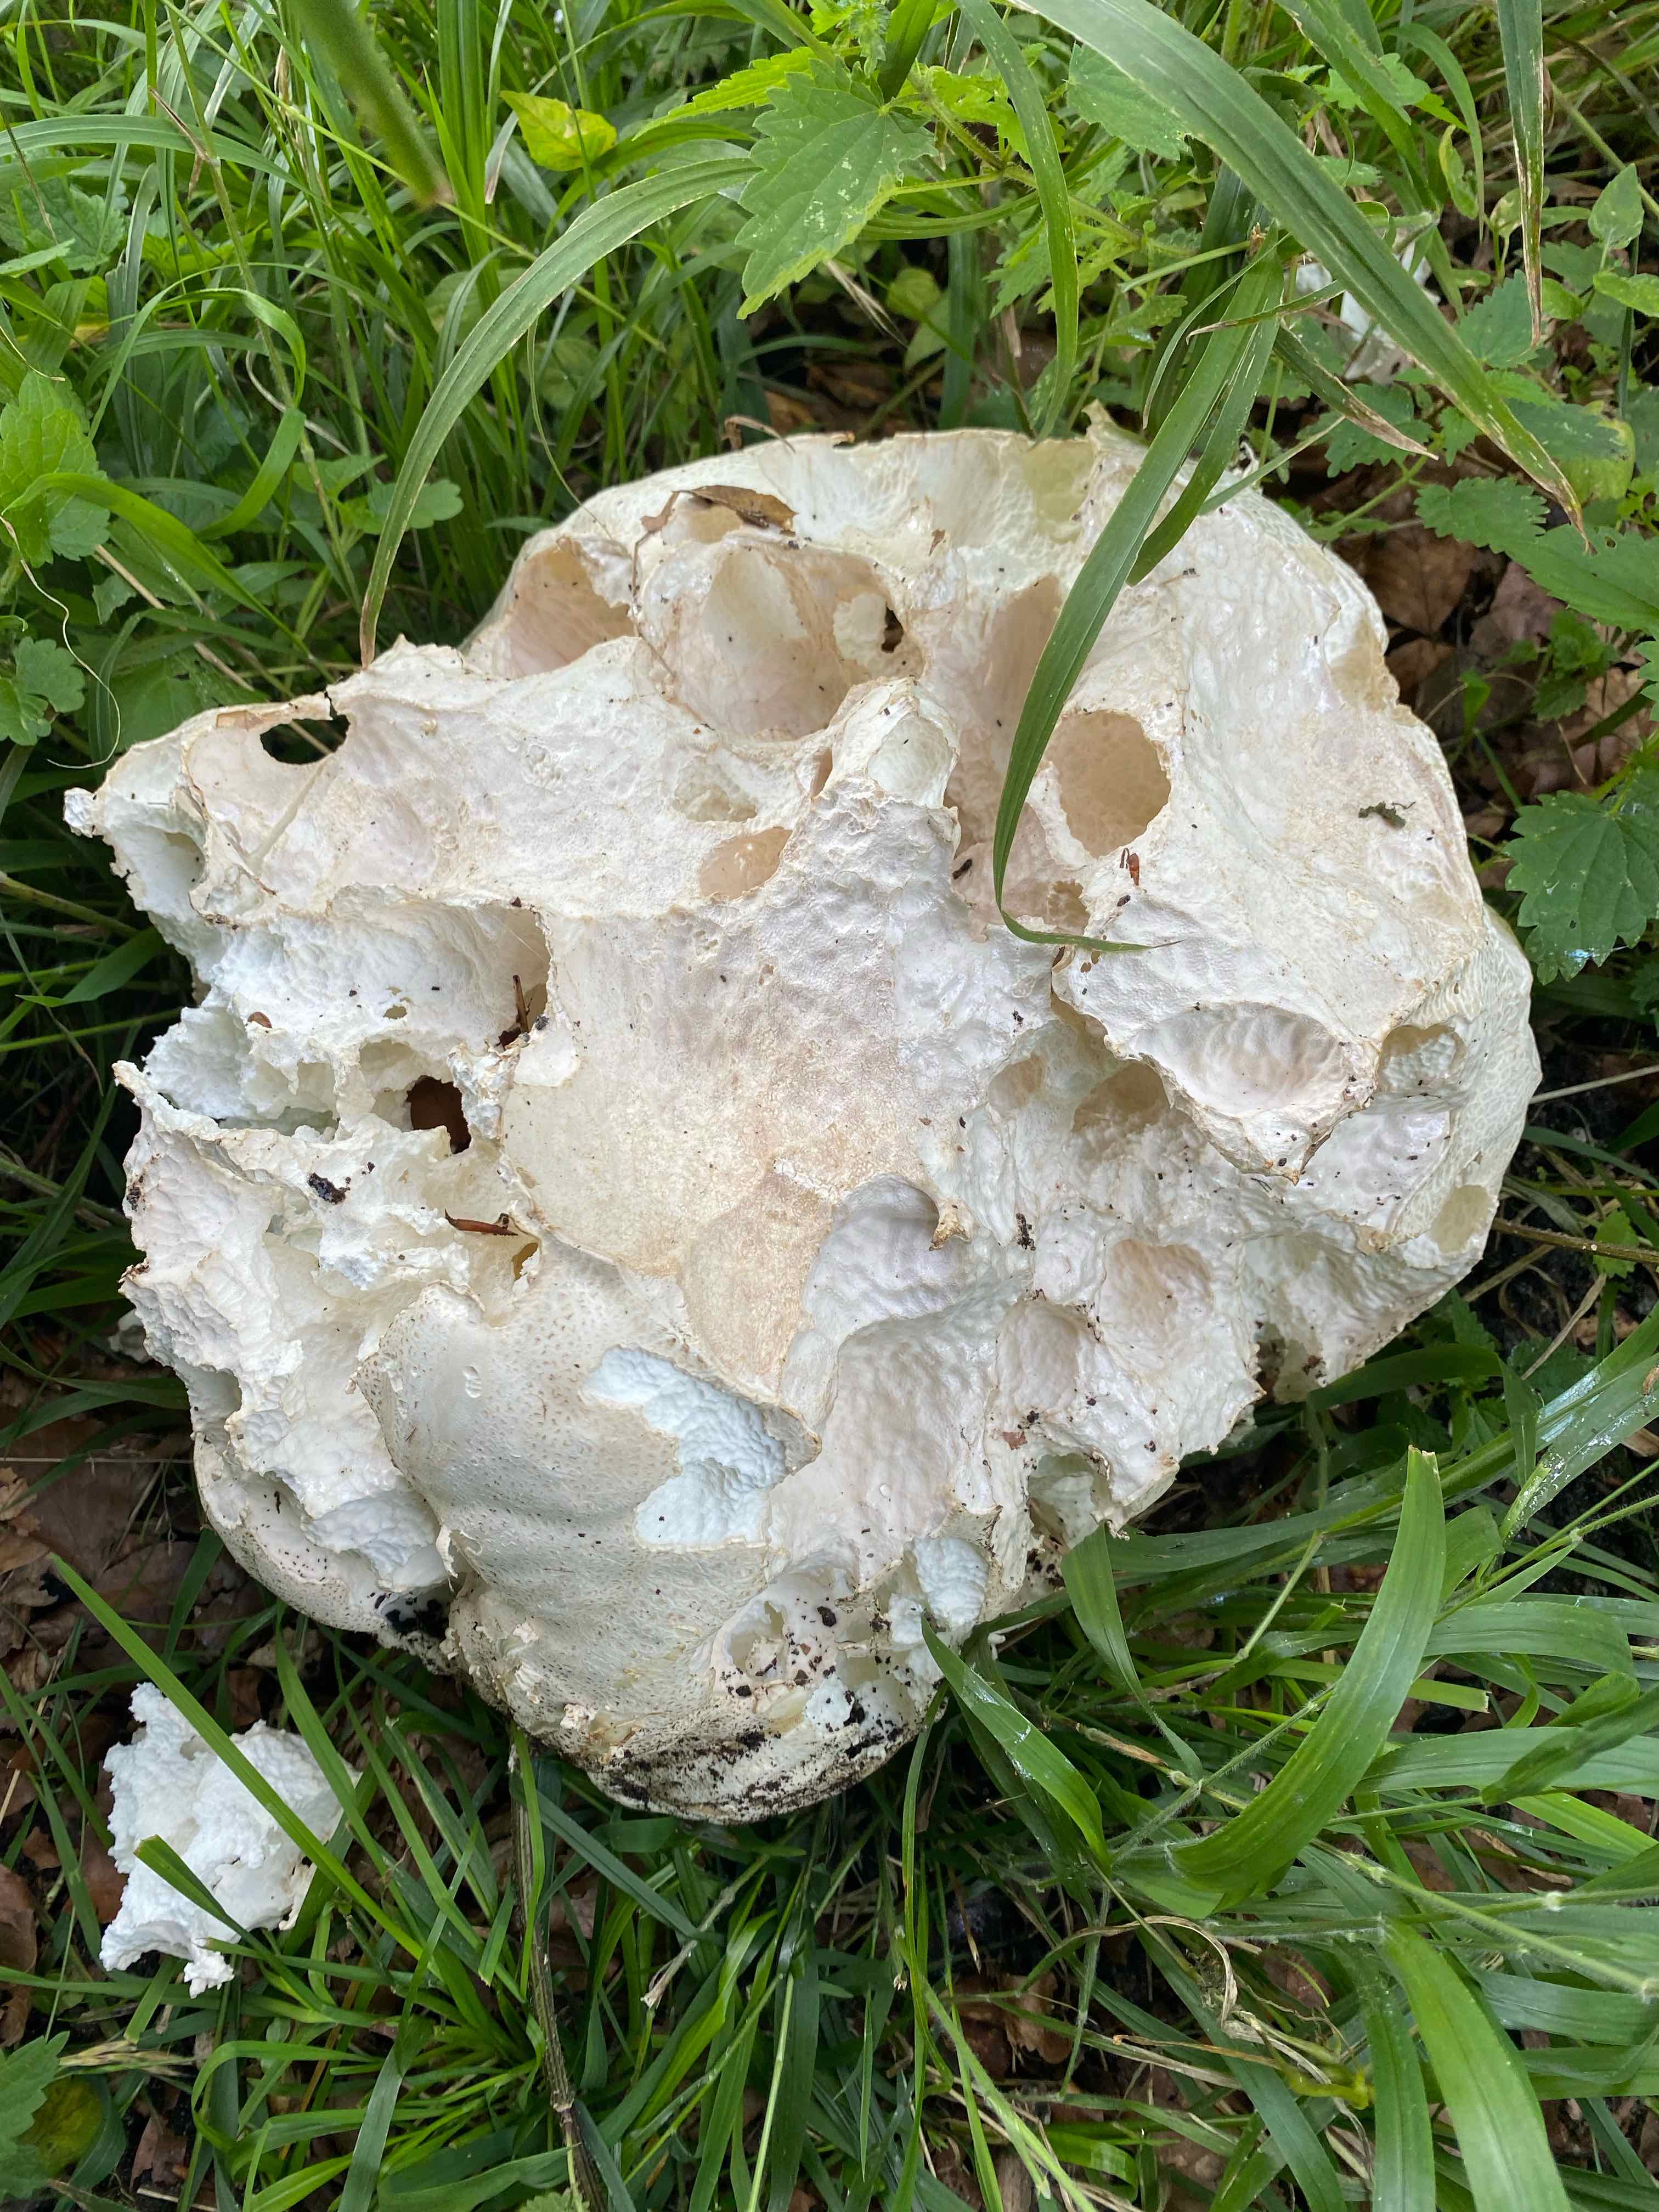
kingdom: Fungi
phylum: Basidiomycota
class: Agaricomycetes
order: Agaricales
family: Lycoperdaceae
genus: Calvatia
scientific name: Calvatia gigantea
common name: kæmpestøvbold
